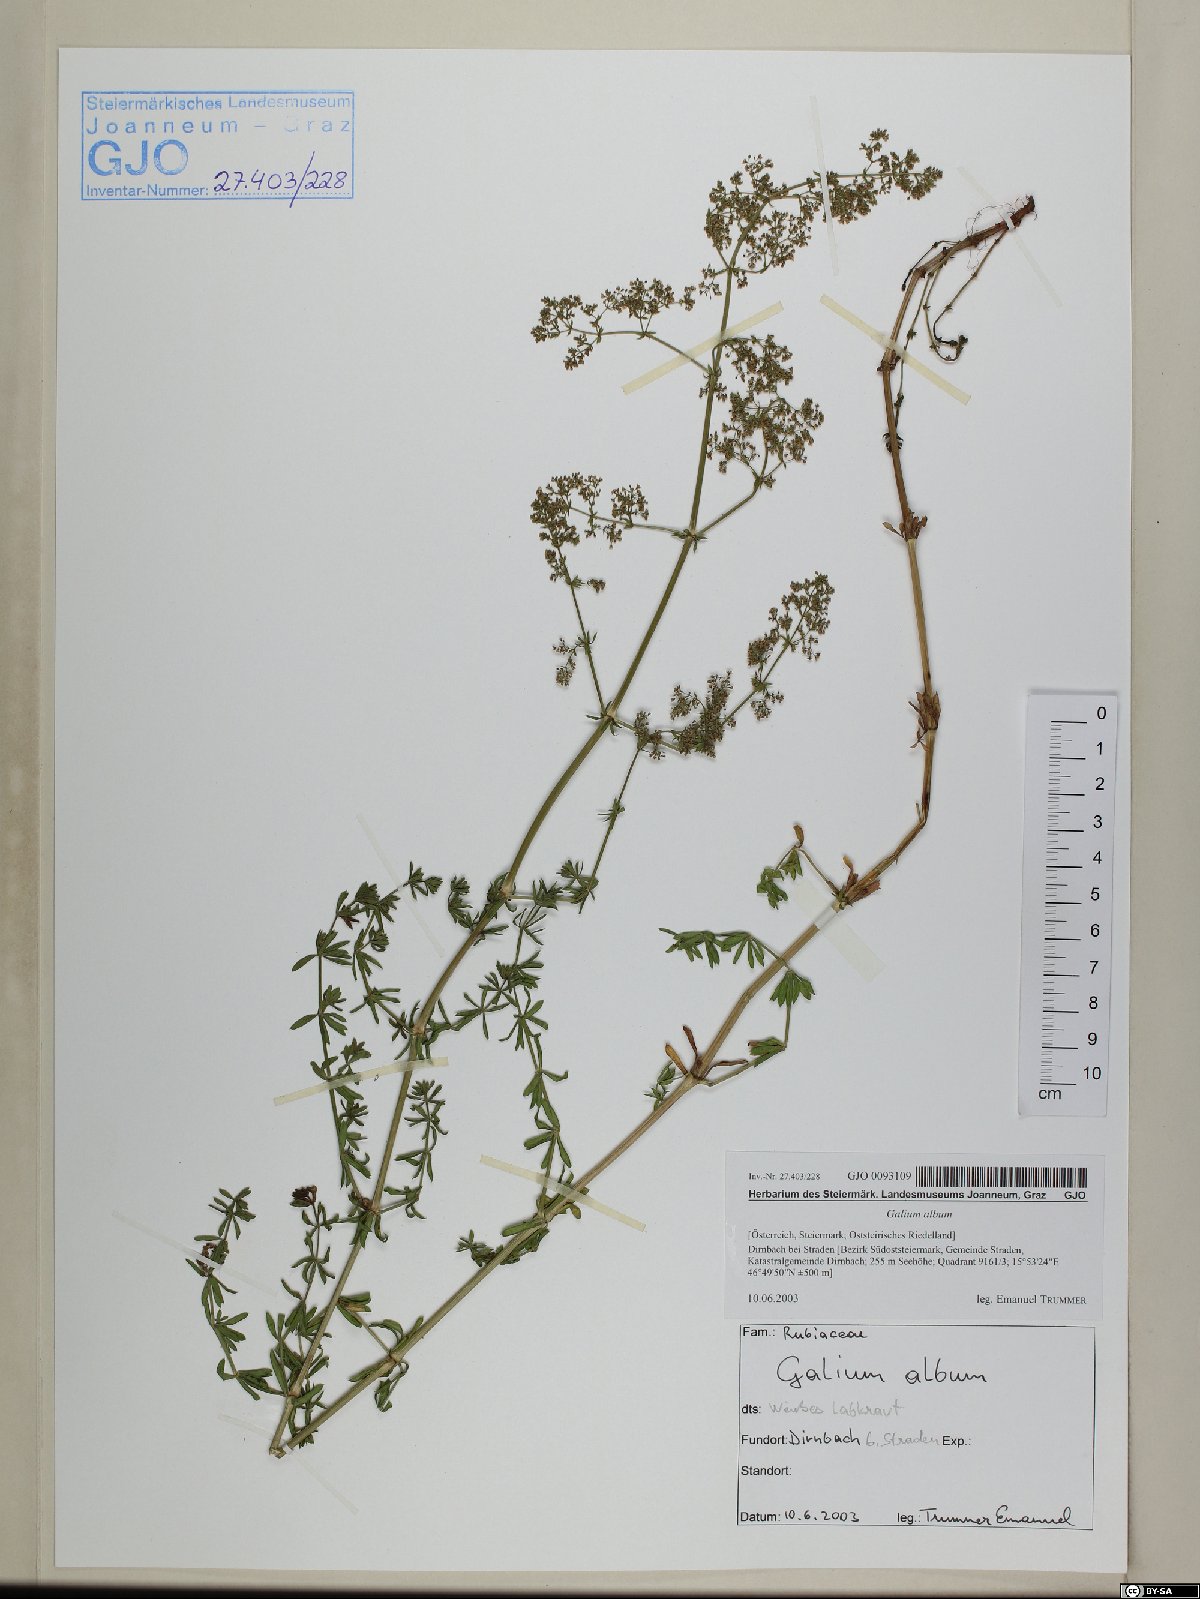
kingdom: Plantae
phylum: Tracheophyta
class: Magnoliopsida
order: Gentianales
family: Rubiaceae
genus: Galium
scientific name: Galium album
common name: White bedstraw
